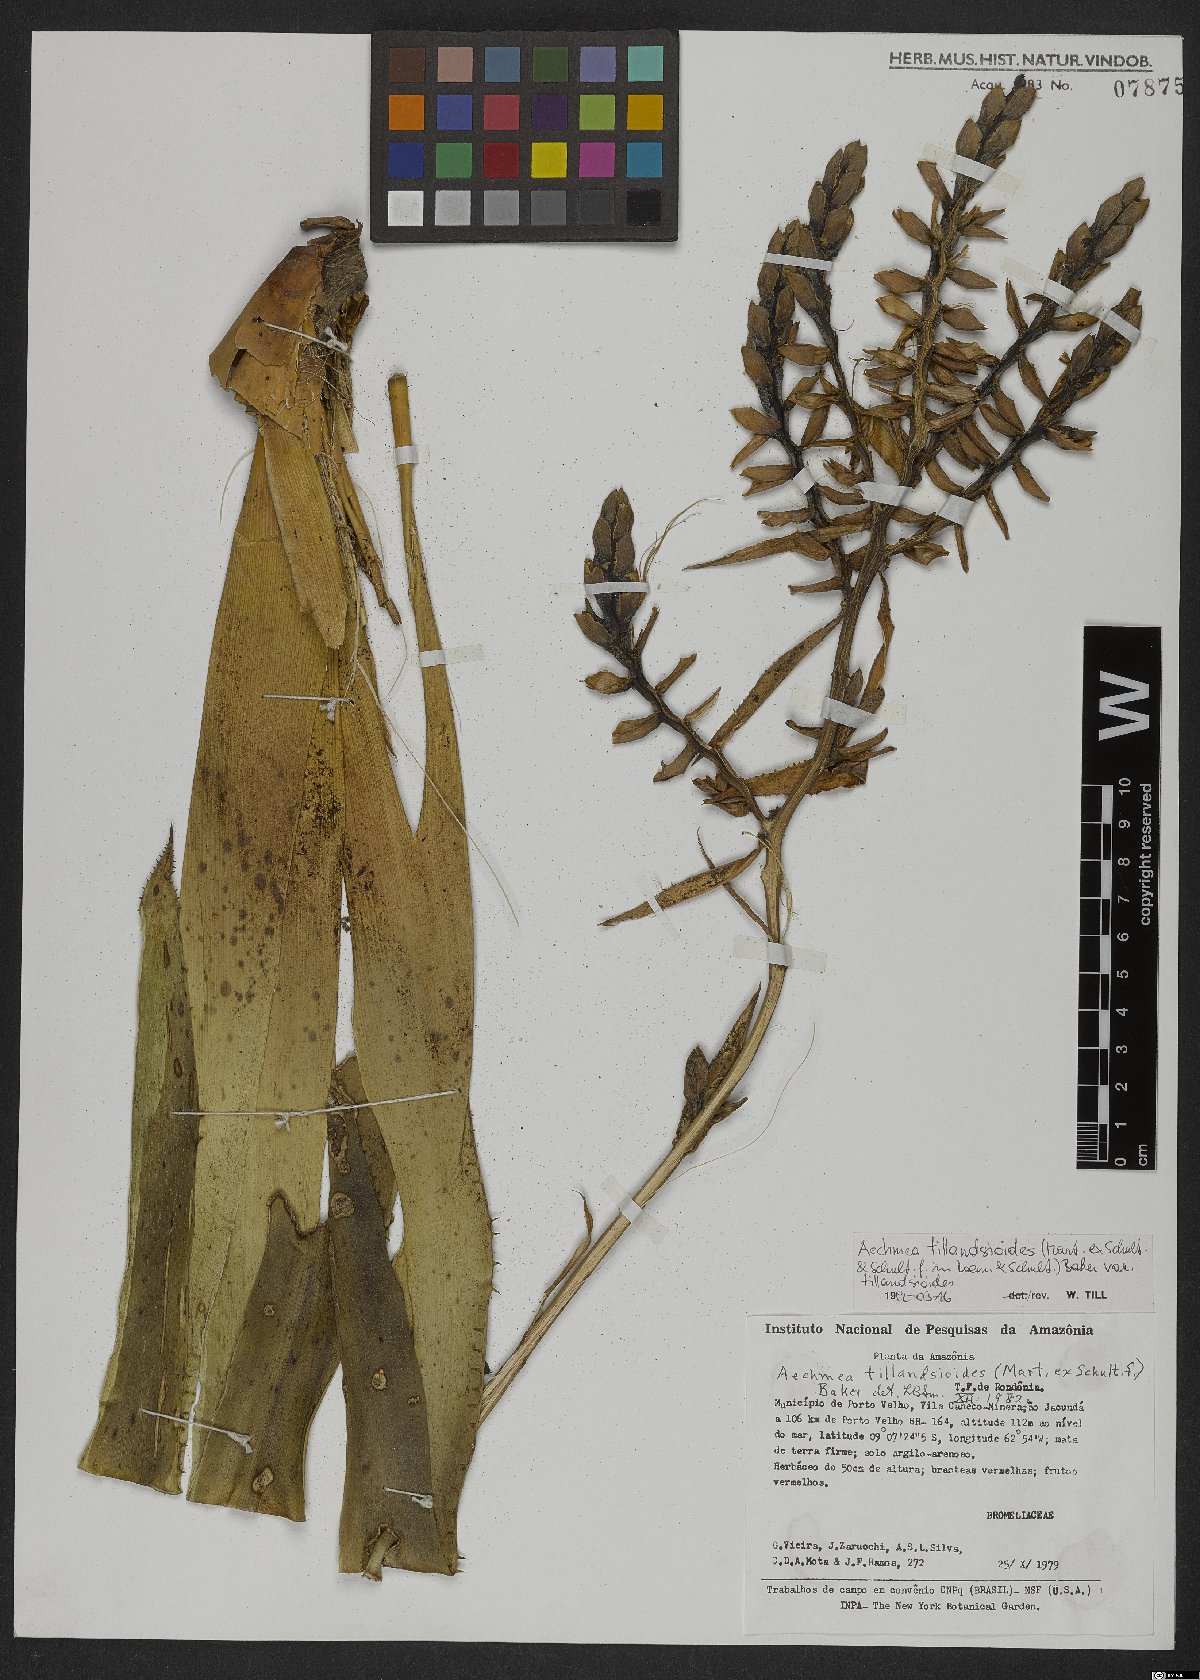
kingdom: Plantae
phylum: Tracheophyta
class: Liliopsida
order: Poales
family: Bromeliaceae
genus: Aechmea
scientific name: Aechmea tillandsioides
